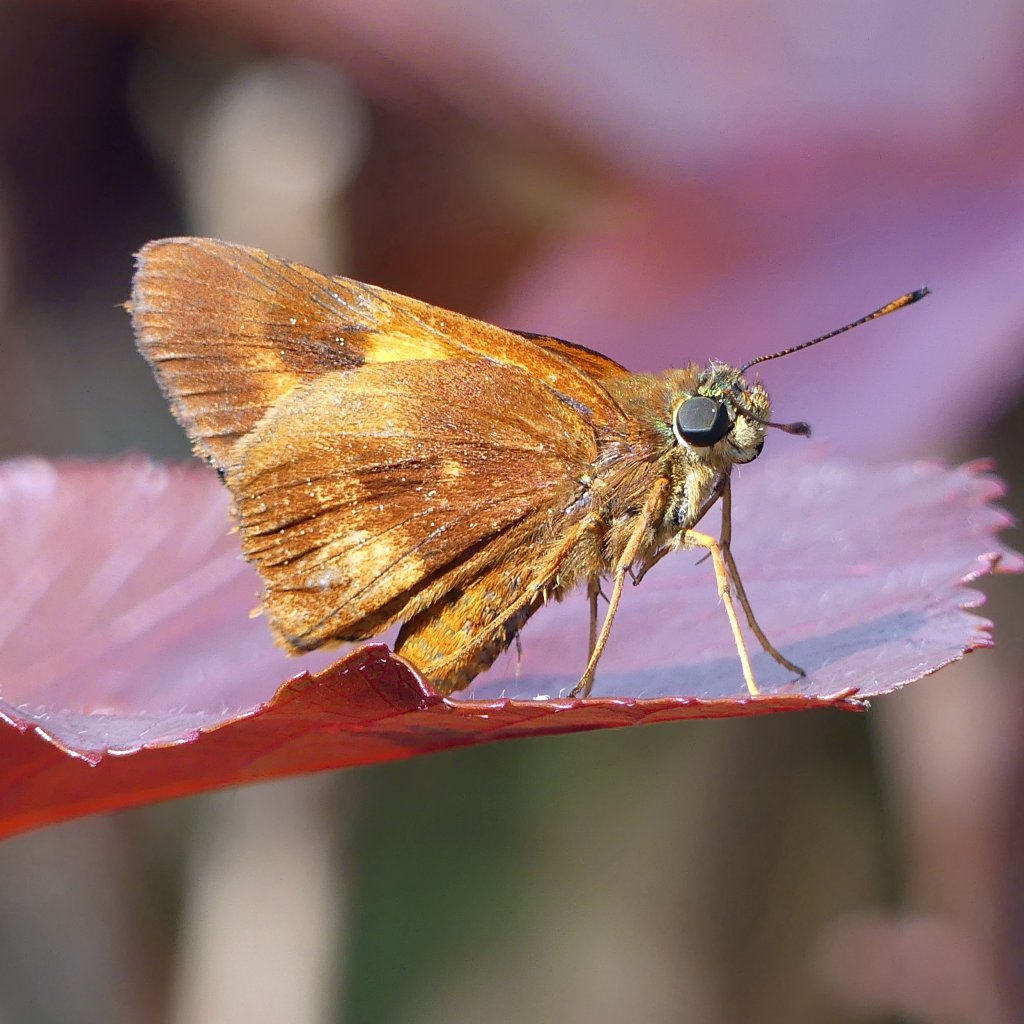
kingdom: Animalia
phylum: Arthropoda
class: Insecta
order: Lepidoptera
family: Hesperiidae
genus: Pyrrhocalles
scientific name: Pyrrhocalles
